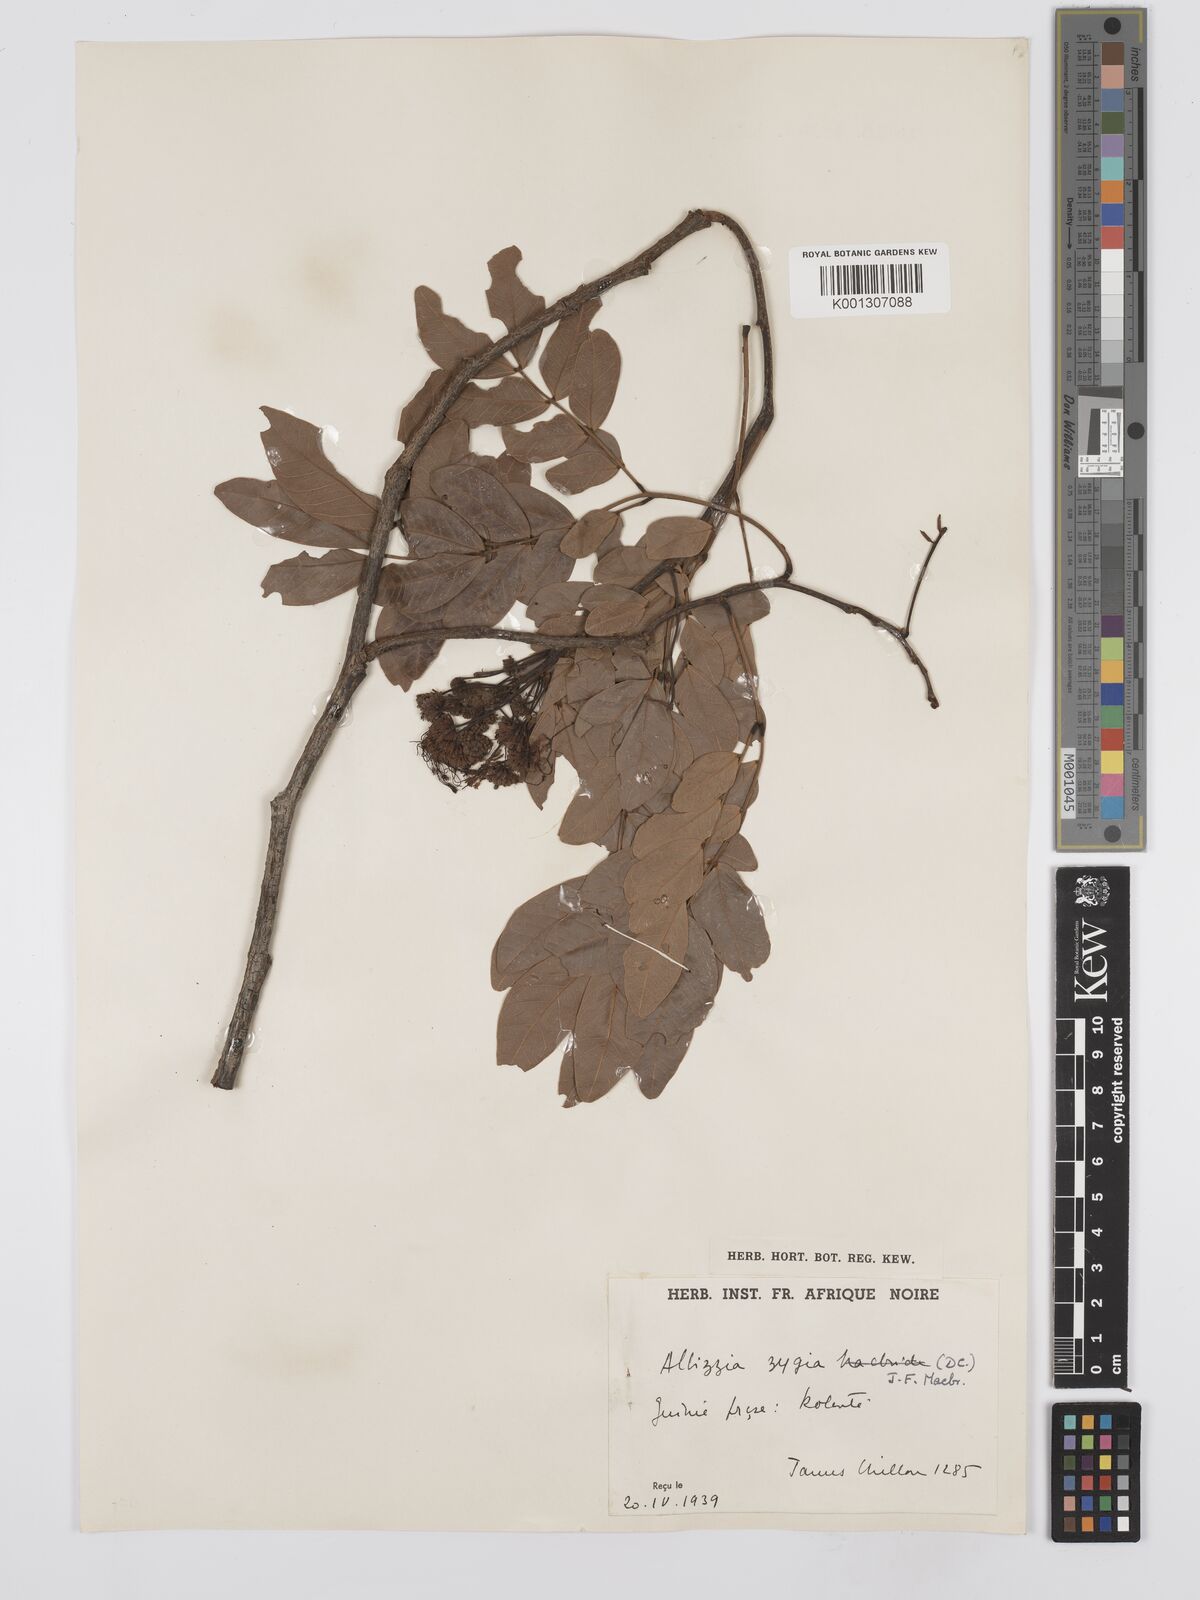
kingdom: Plantae
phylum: Tracheophyta
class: Magnoliopsida
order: Fabales
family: Fabaceae
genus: Albizia
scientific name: Albizia zygia
